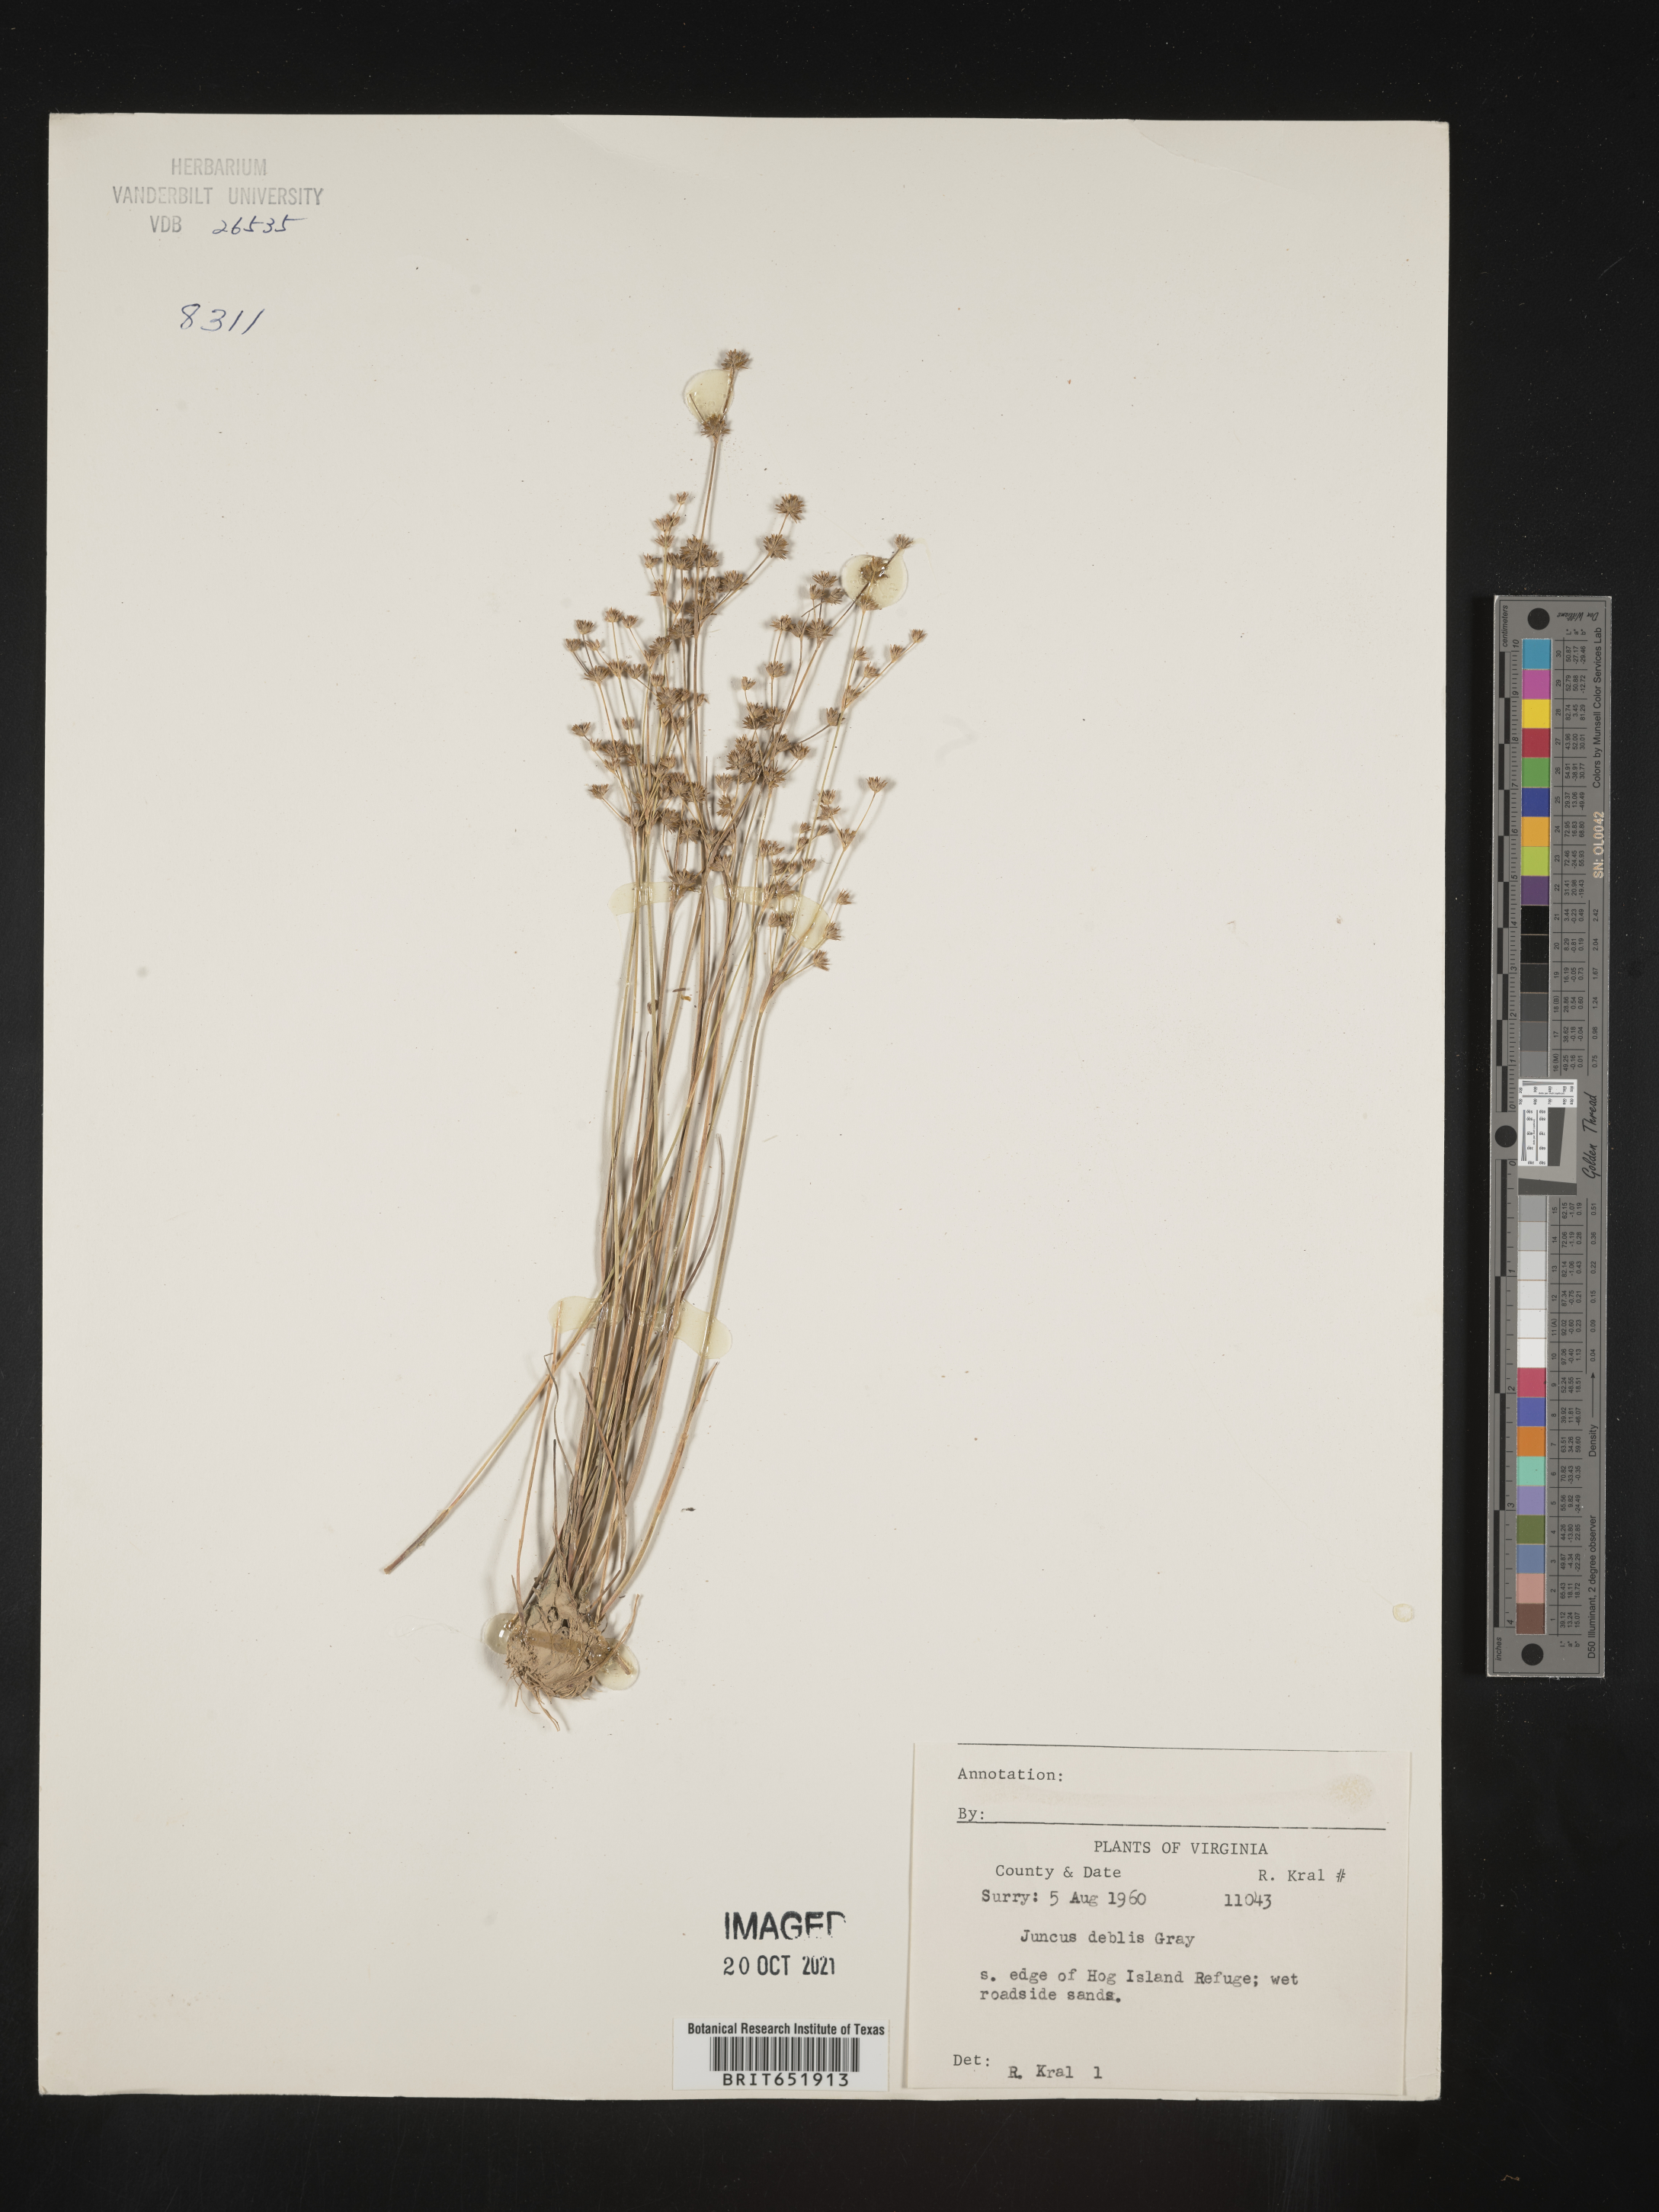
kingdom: Plantae
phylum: Tracheophyta
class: Liliopsida
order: Poales
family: Juncaceae
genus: Juncus
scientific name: Juncus debilis
